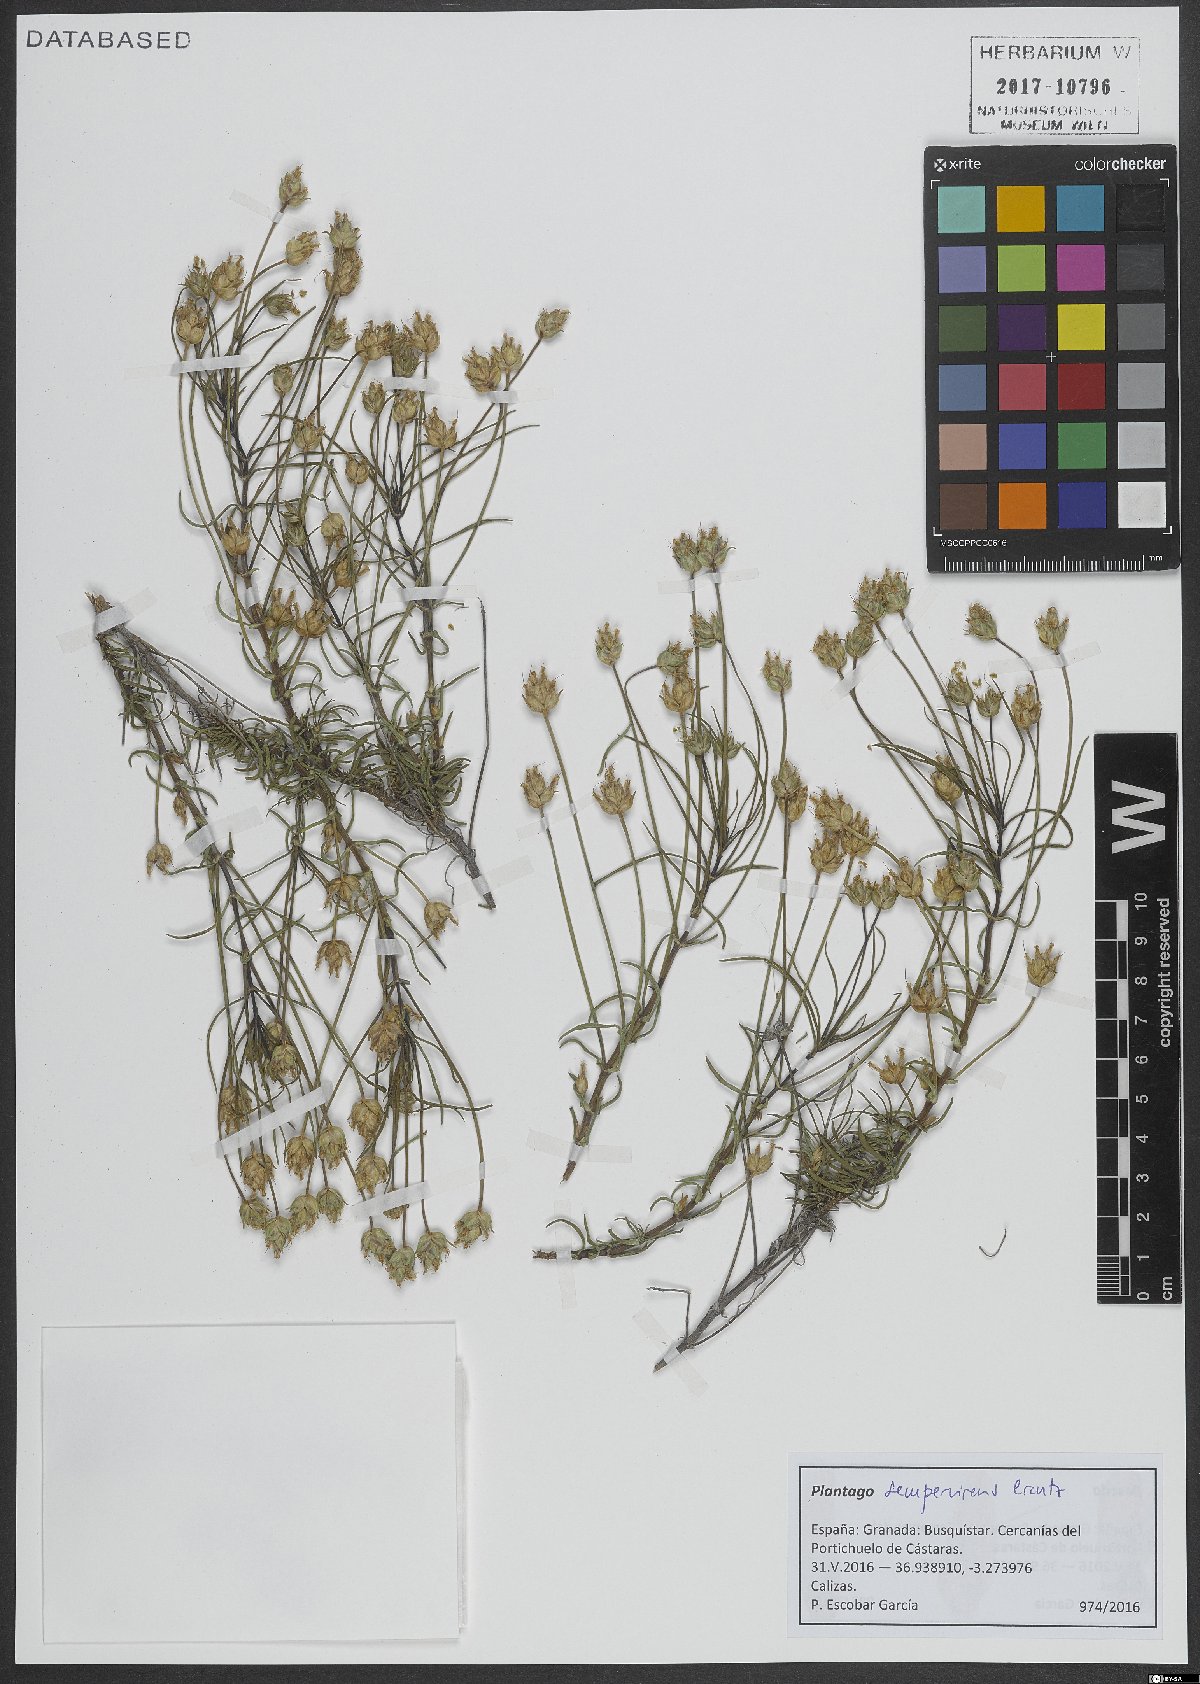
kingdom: Plantae
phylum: Tracheophyta
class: Magnoliopsida
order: Lamiales
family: Plantaginaceae
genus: Plantago
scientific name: Plantago sempervirens
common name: Shrubby plantain
